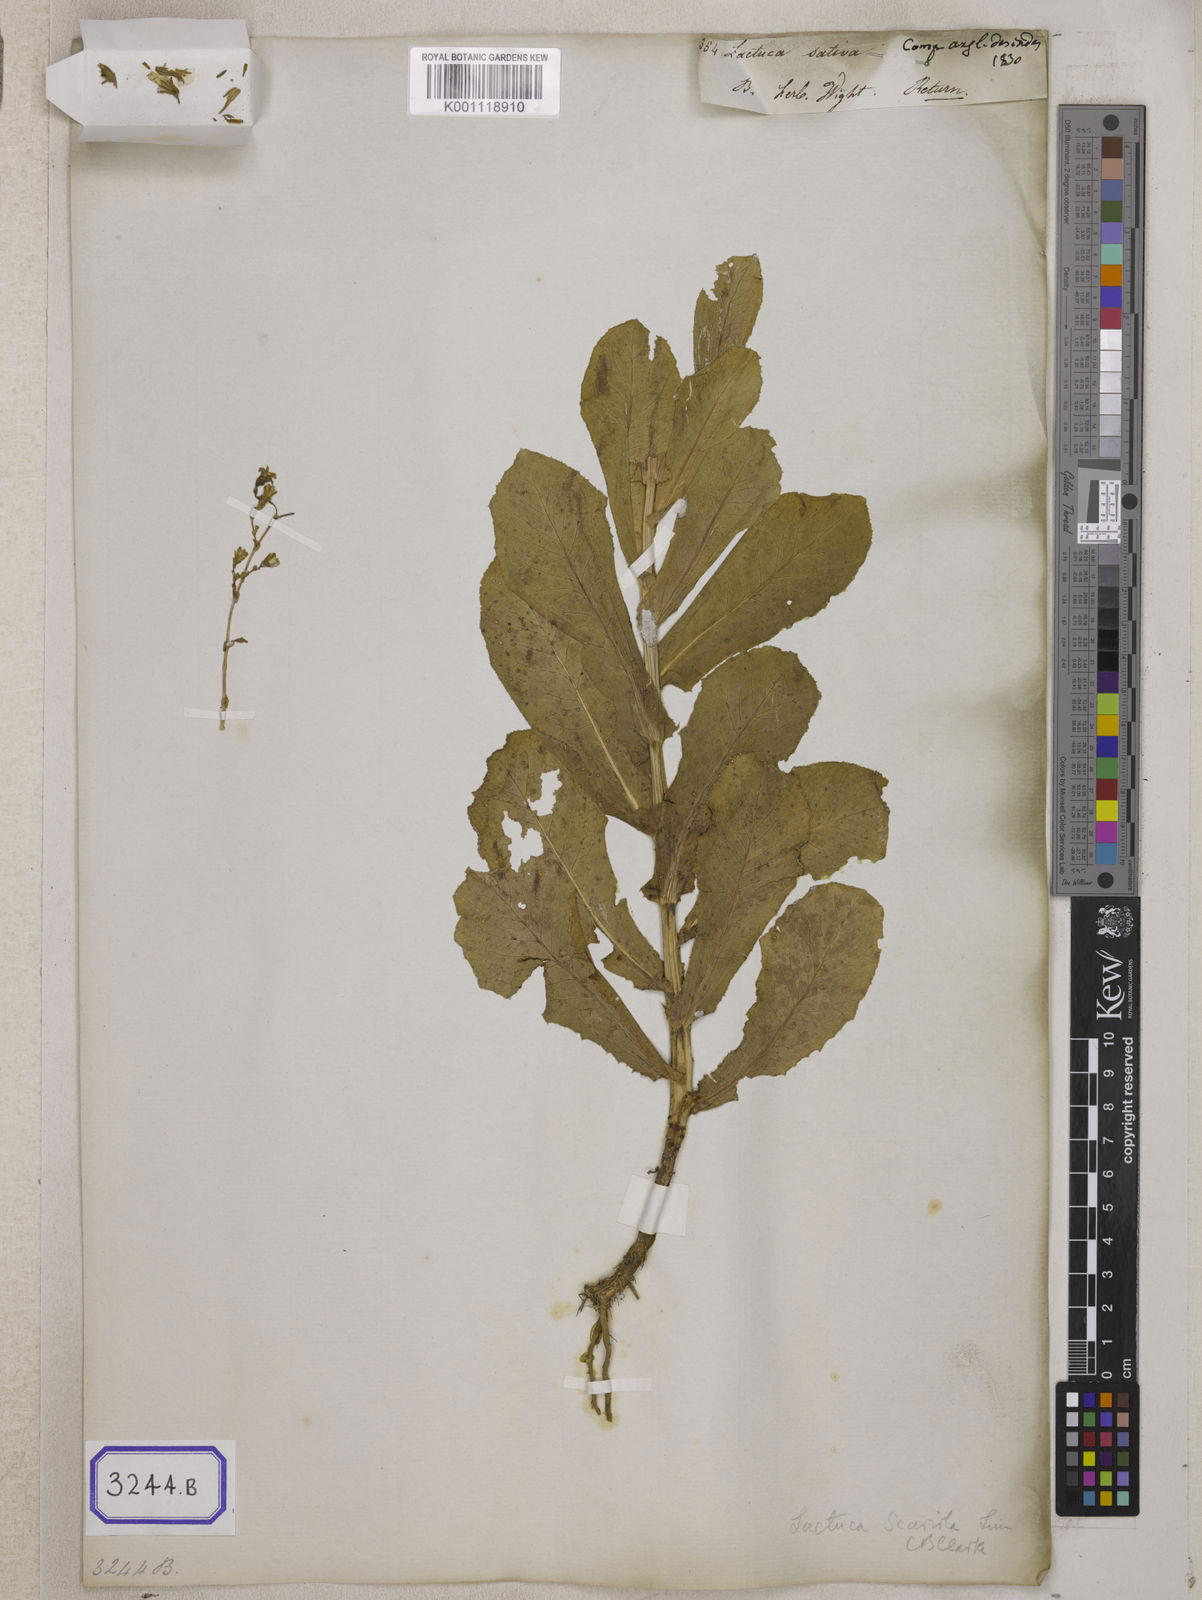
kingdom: Plantae
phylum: Tracheophyta
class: Magnoliopsida
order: Asterales
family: Asteraceae
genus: Lactuca
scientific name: Lactuca sativa
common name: Garden lettuce
